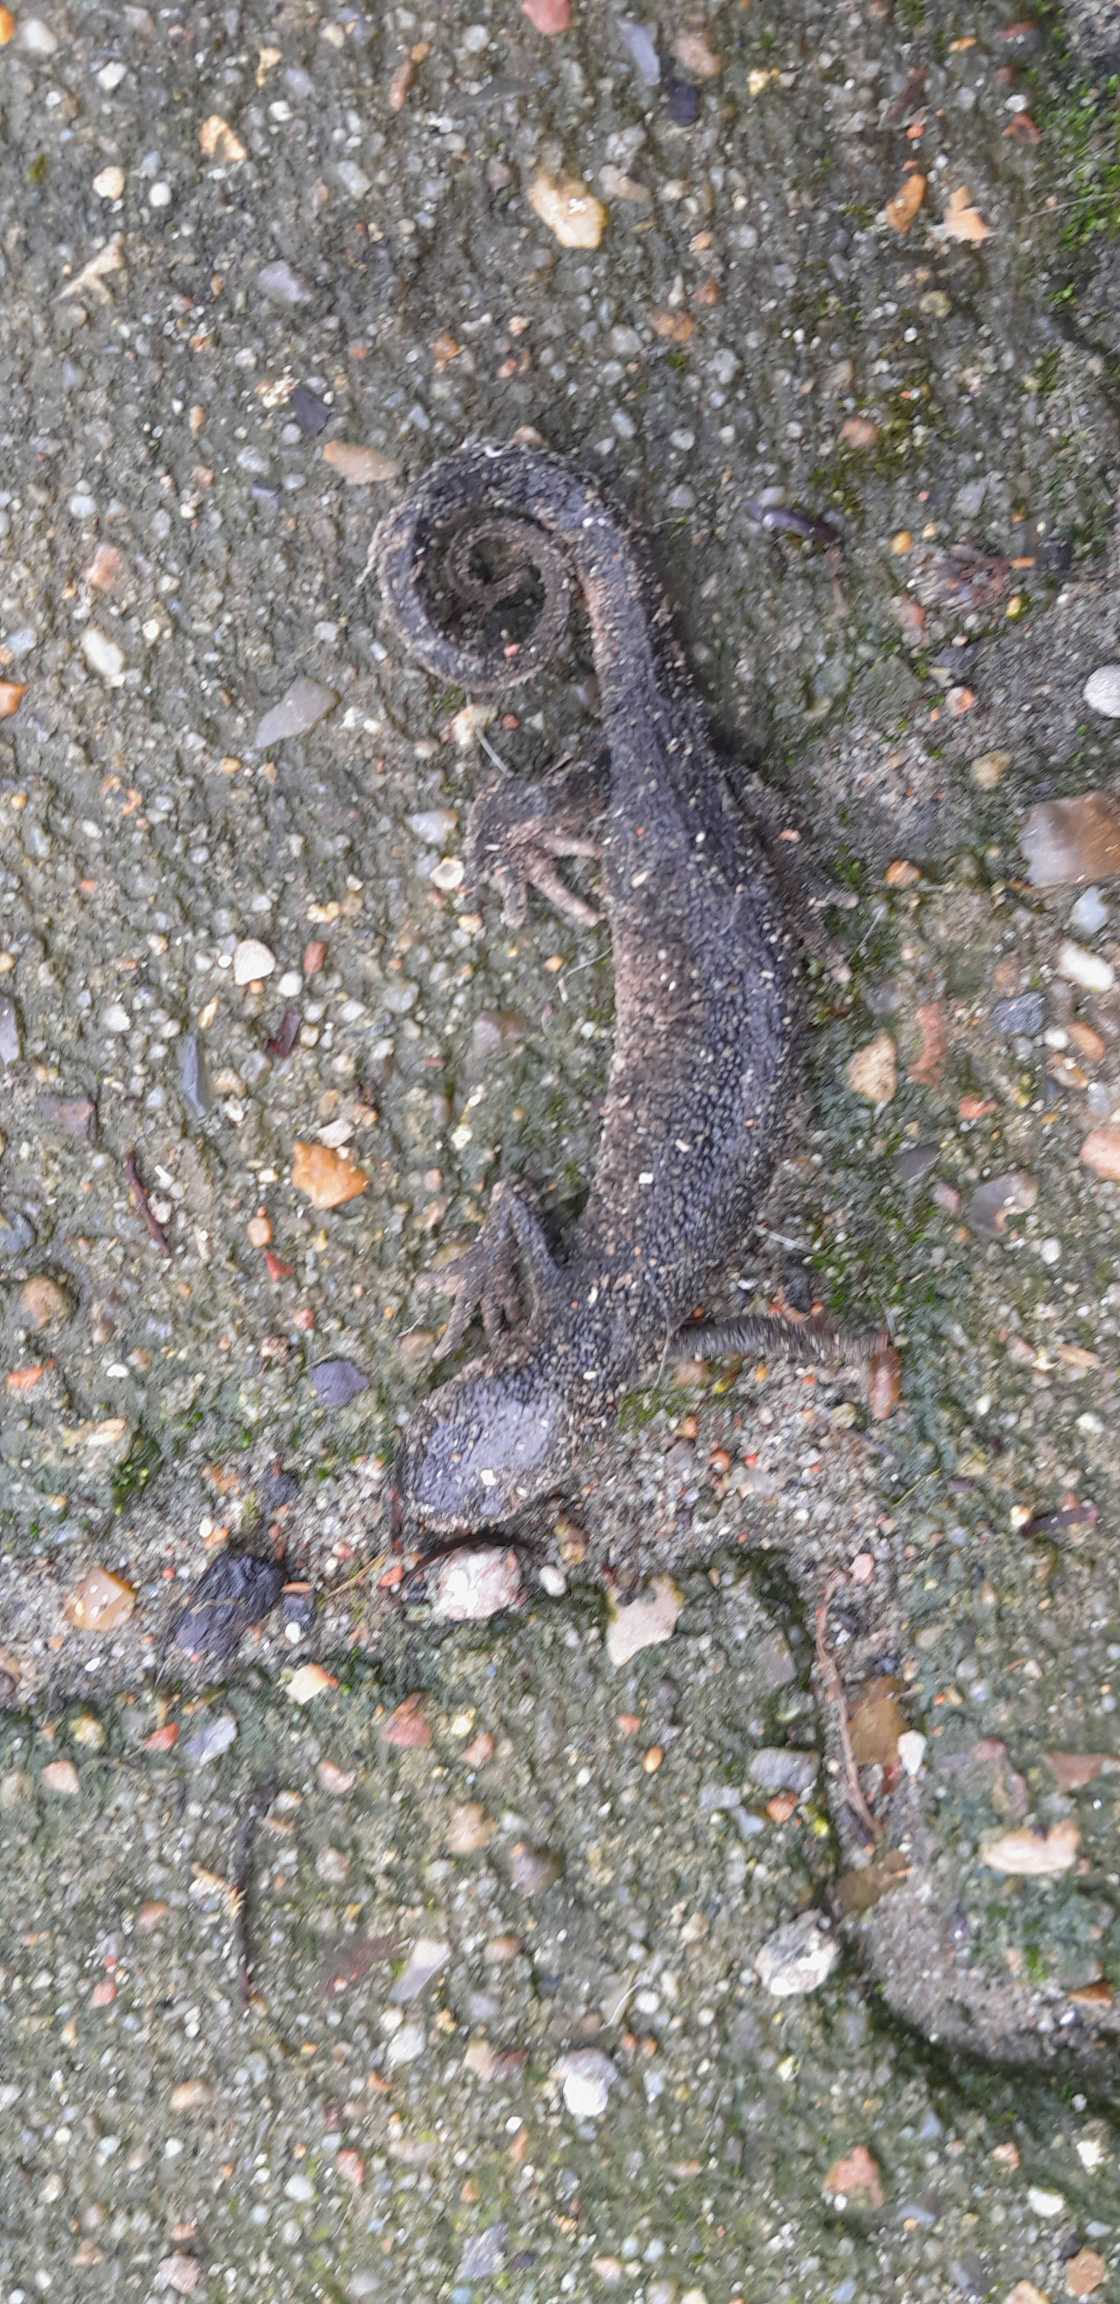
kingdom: Animalia
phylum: Chordata
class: Amphibia
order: Caudata
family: Salamandridae
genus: Triturus
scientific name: Triturus cristatus
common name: Stor vandsalamander
